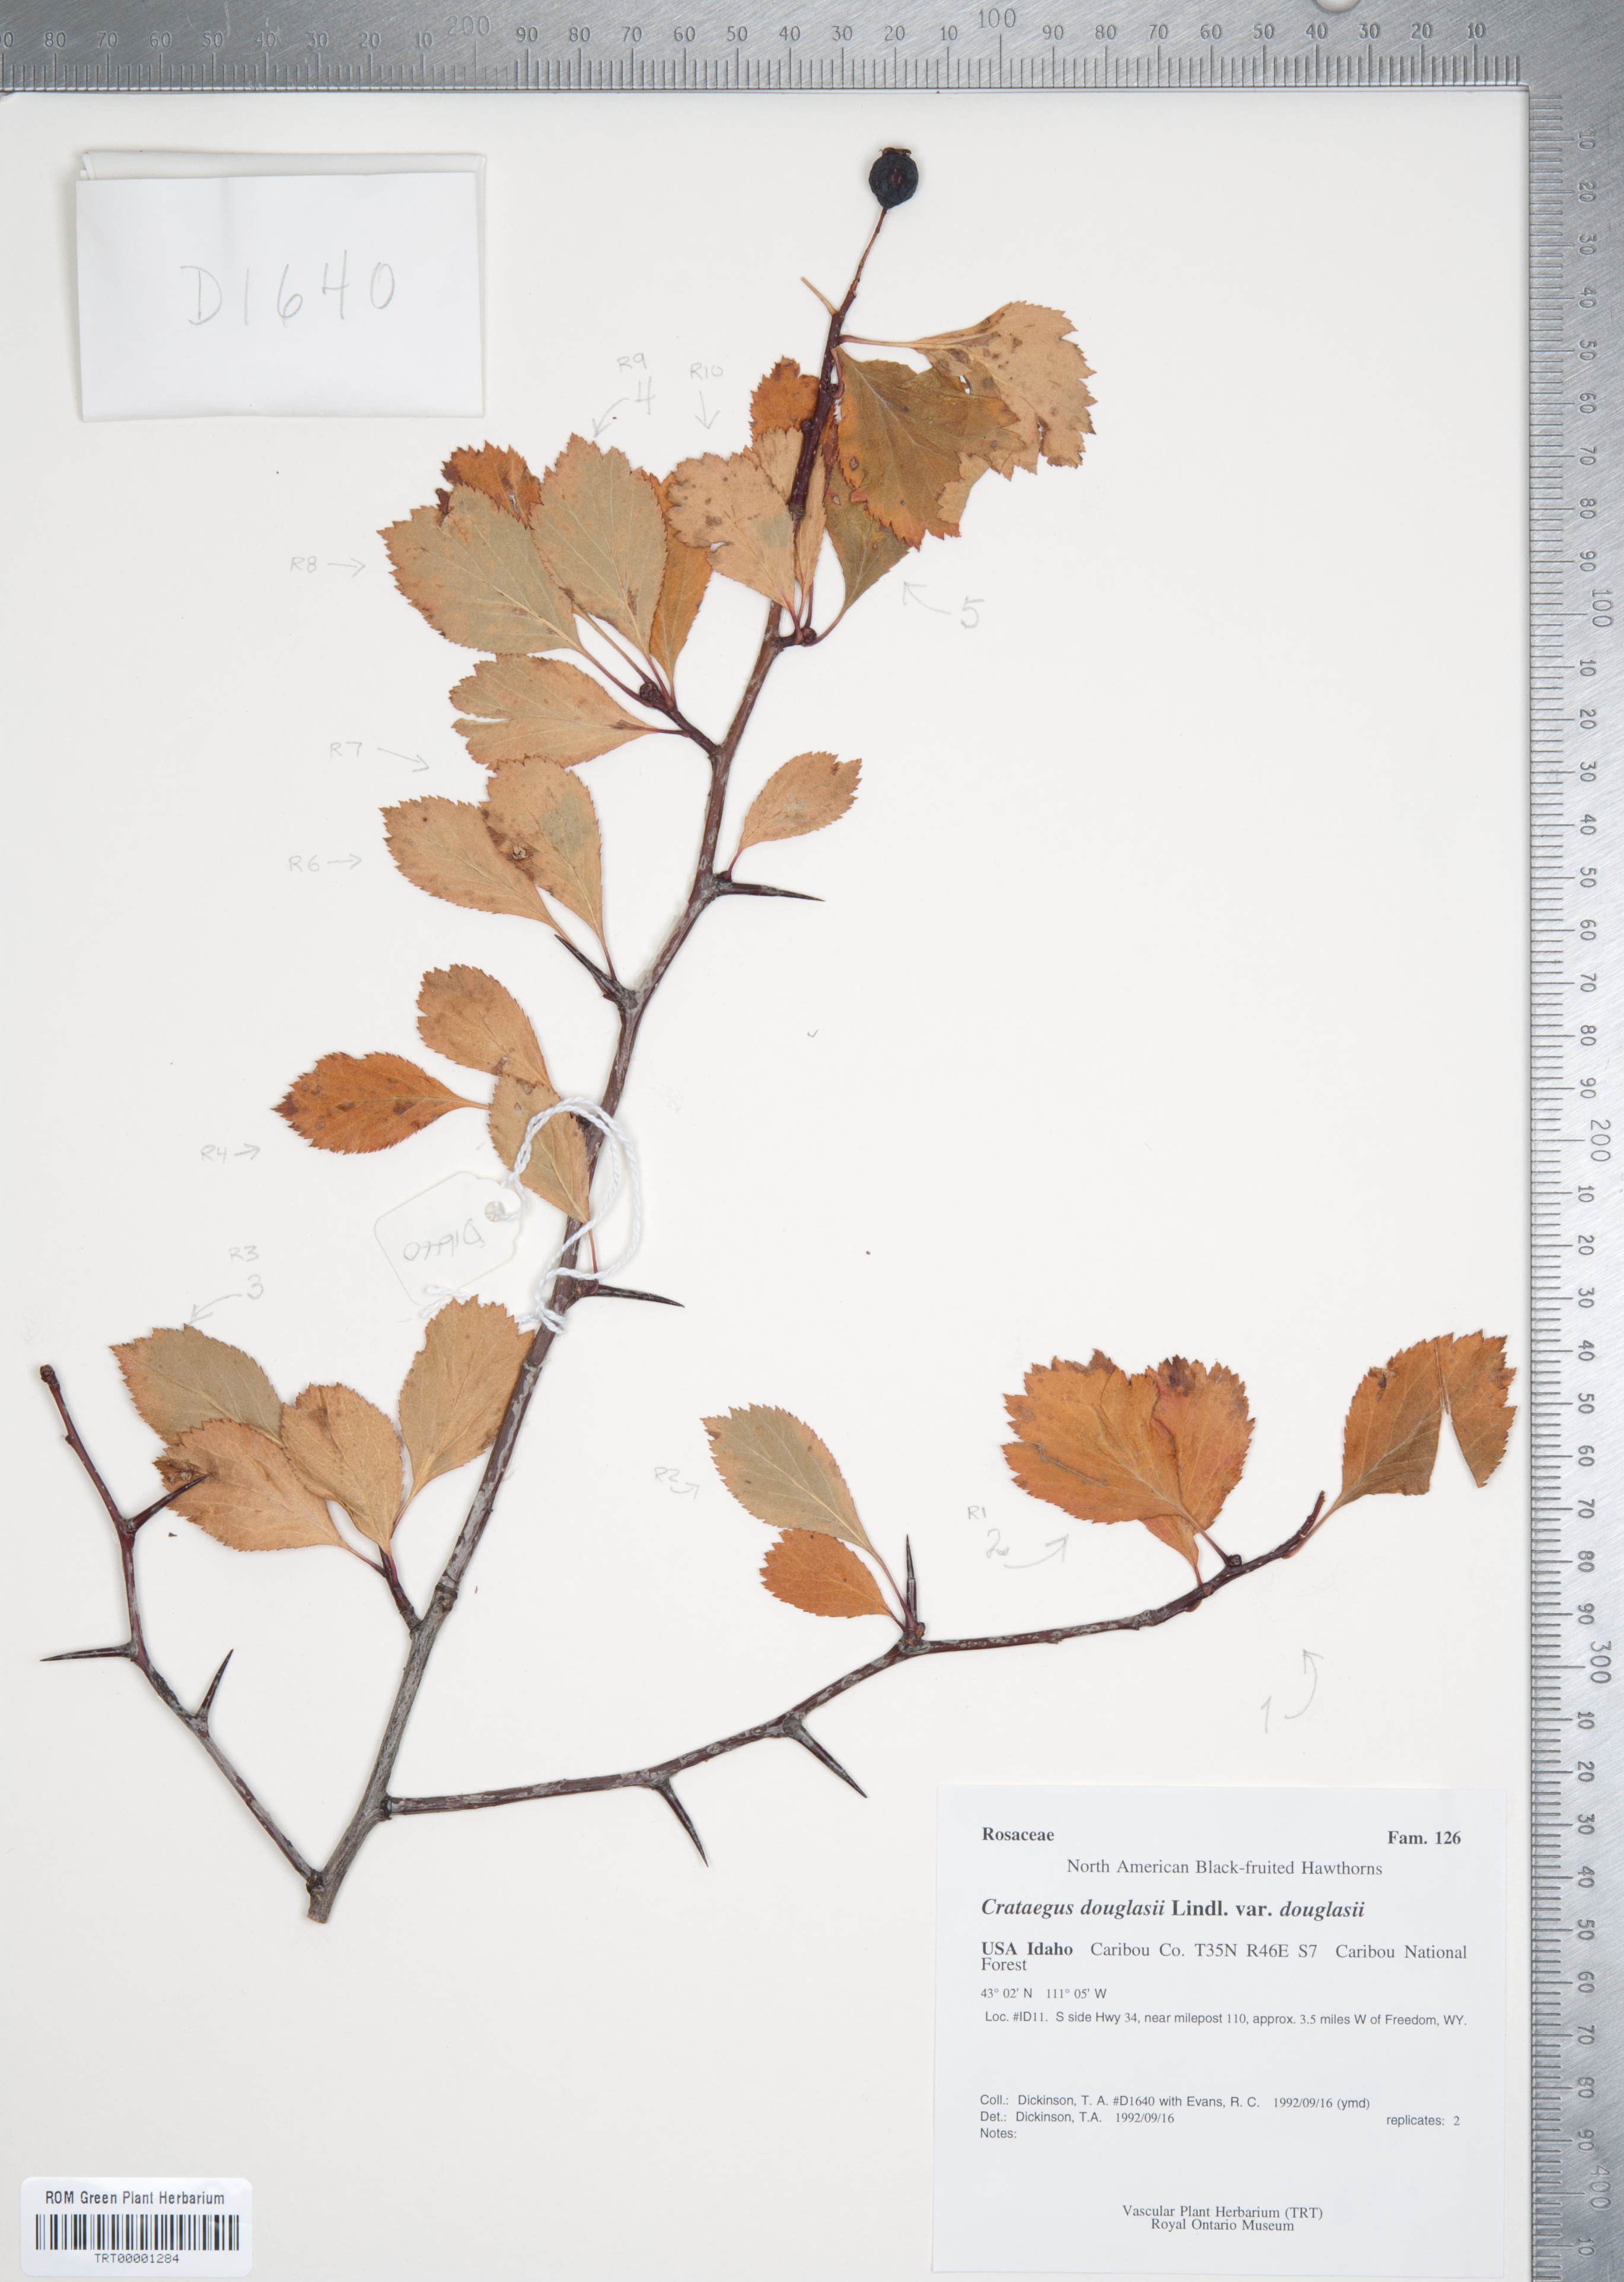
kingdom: Plantae
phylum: Tracheophyta
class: Magnoliopsida
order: Rosales
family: Rosaceae
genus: Crataegus
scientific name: Crataegus douglasii
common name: Black hawthorn
